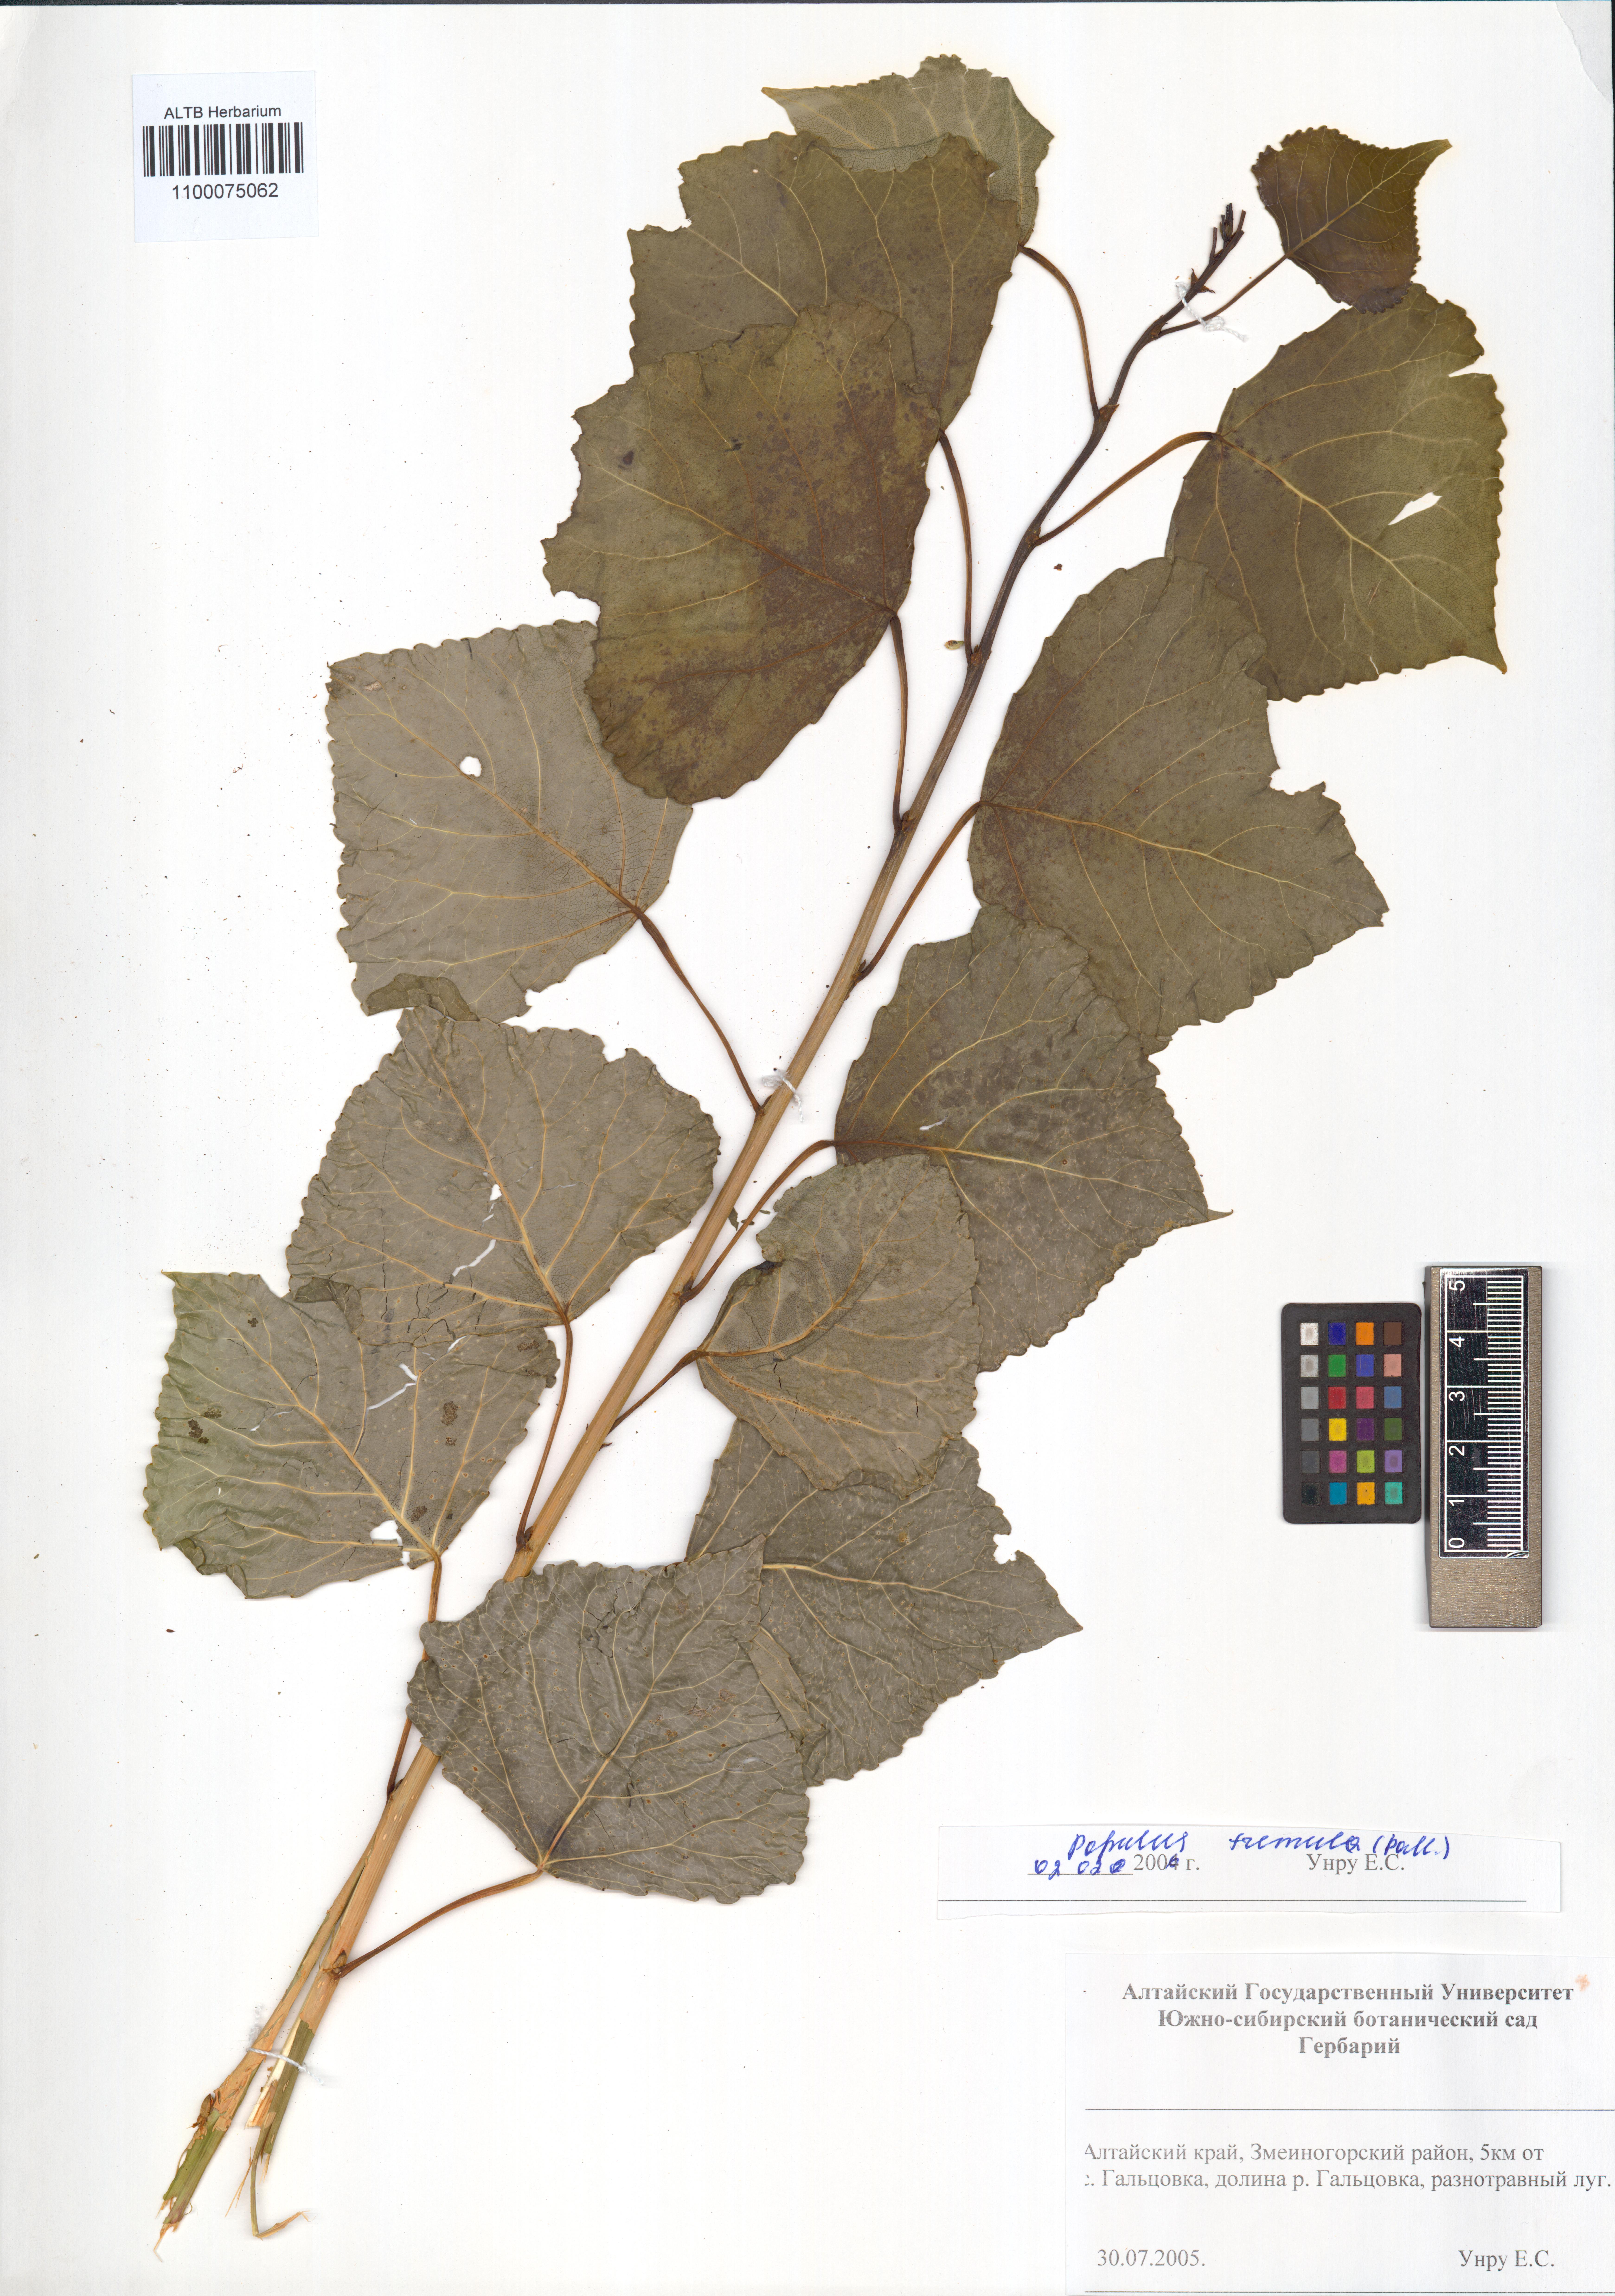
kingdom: Plantae
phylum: Tracheophyta
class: Magnoliopsida
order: Malpighiales
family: Salicaceae
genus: Populus
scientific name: Populus tremula
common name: European aspen
